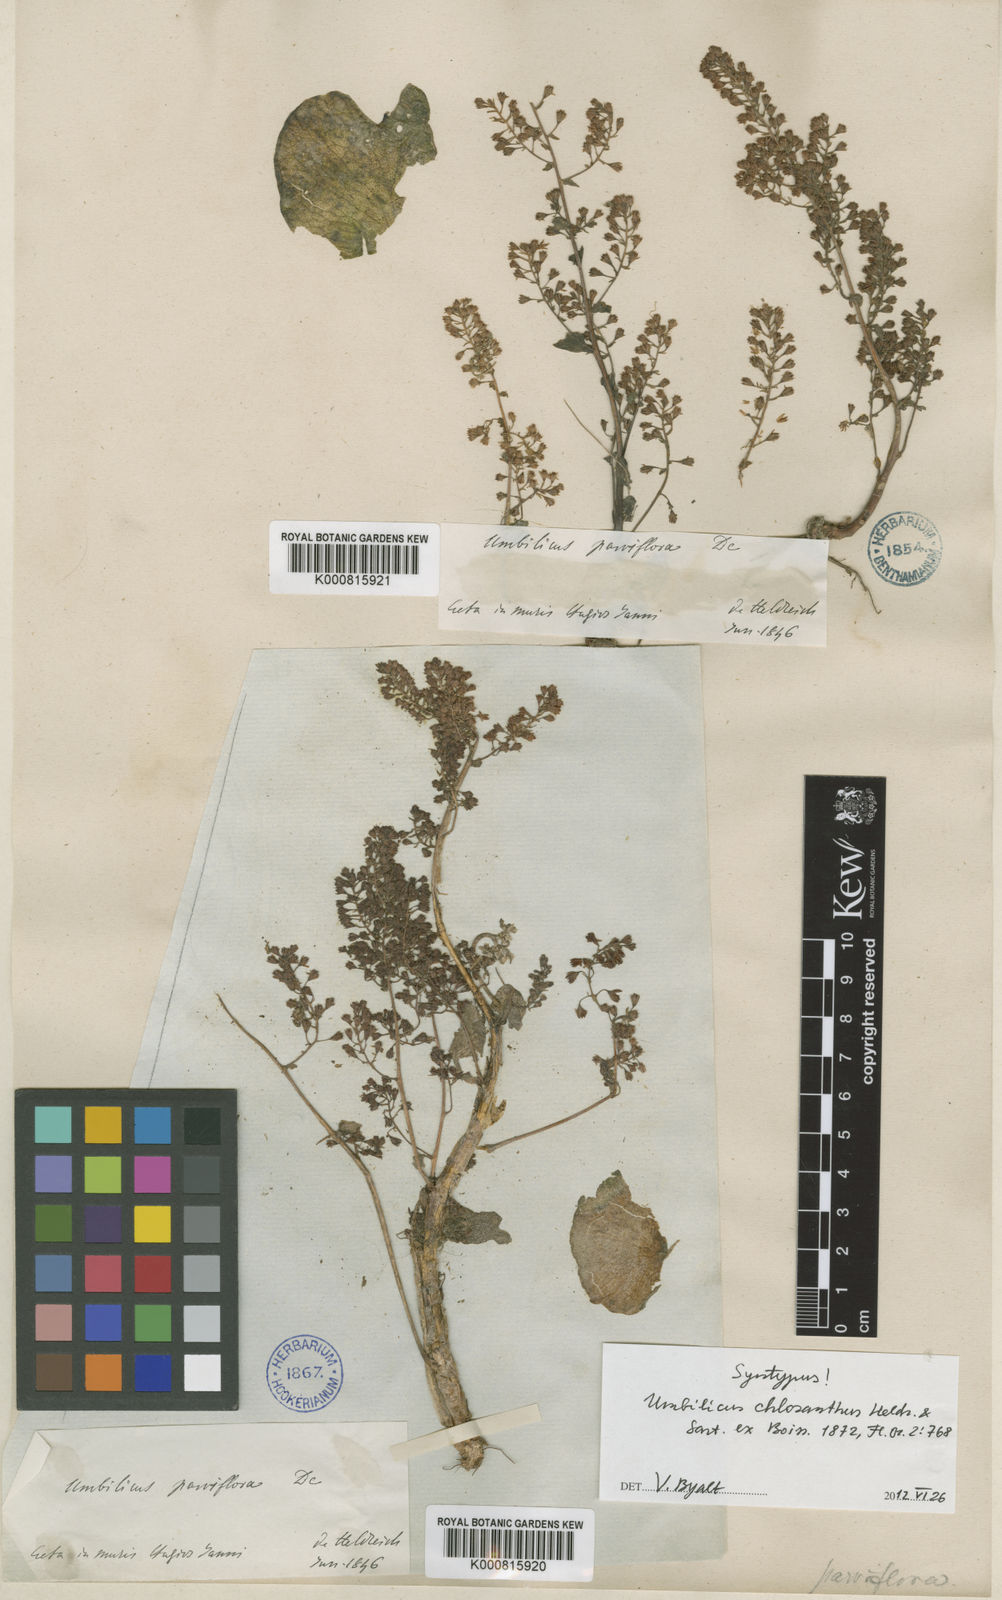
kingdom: Plantae
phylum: Tracheophyta
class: Magnoliopsida
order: Saxifragales
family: Crassulaceae
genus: Umbilicus
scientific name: Umbilicus chloranthus
